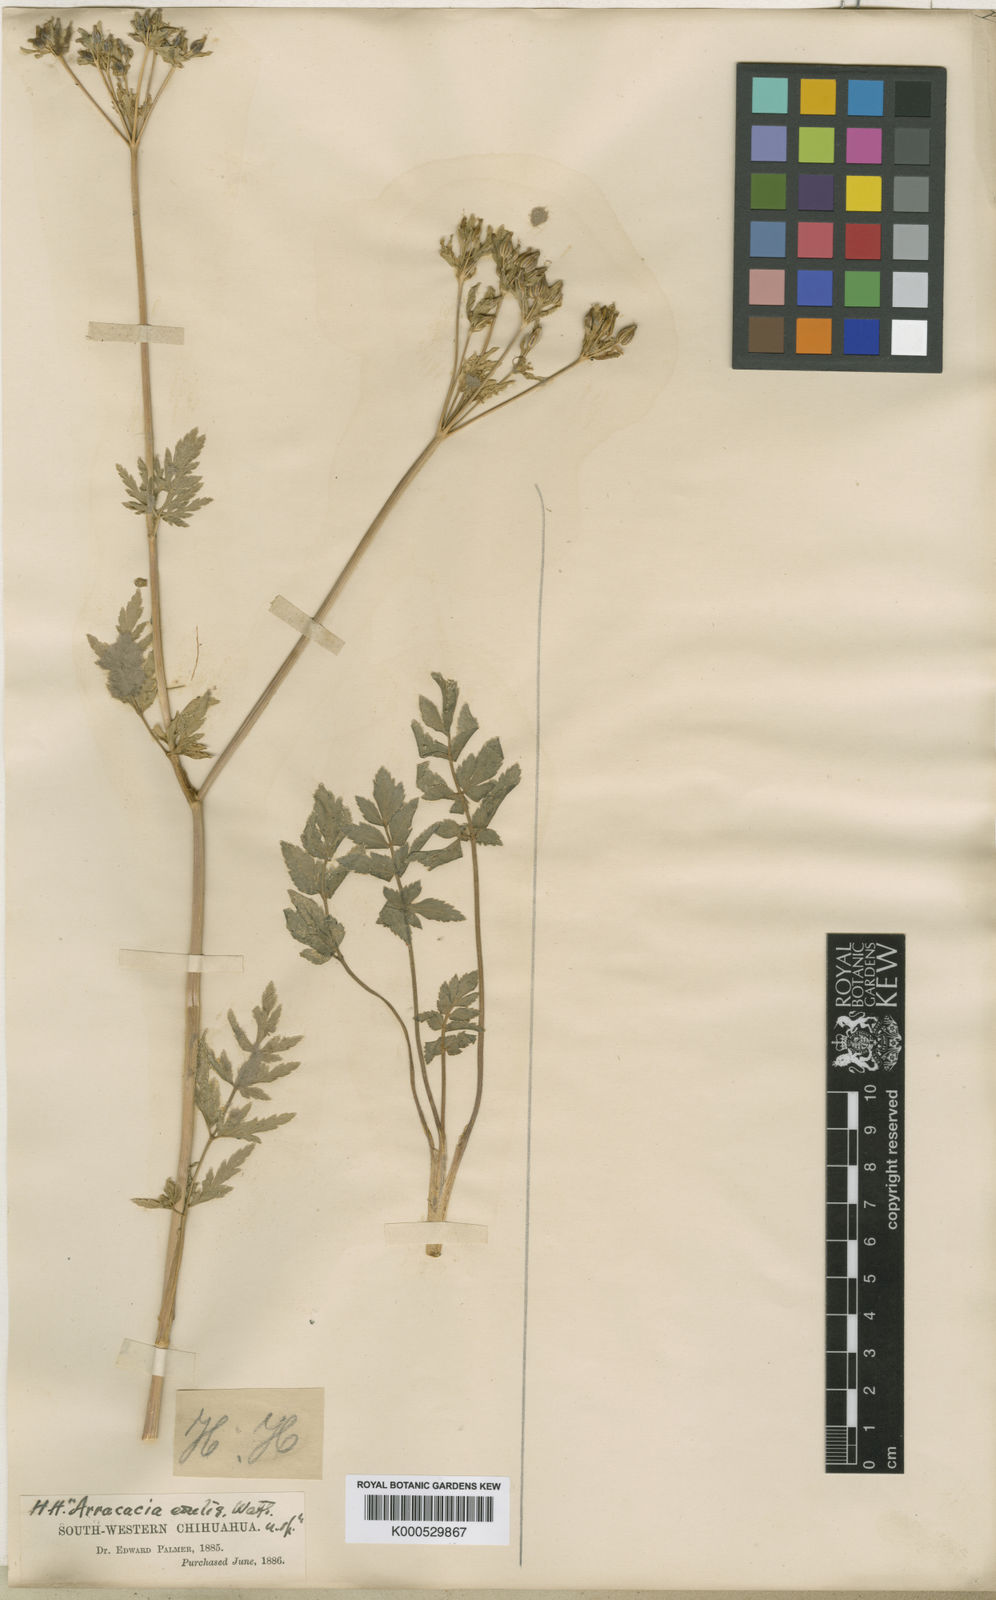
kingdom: Plantae
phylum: Tracheophyta
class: Magnoliopsida
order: Apiales
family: Apiaceae
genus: Tauschia
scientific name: Tauschia edulis
